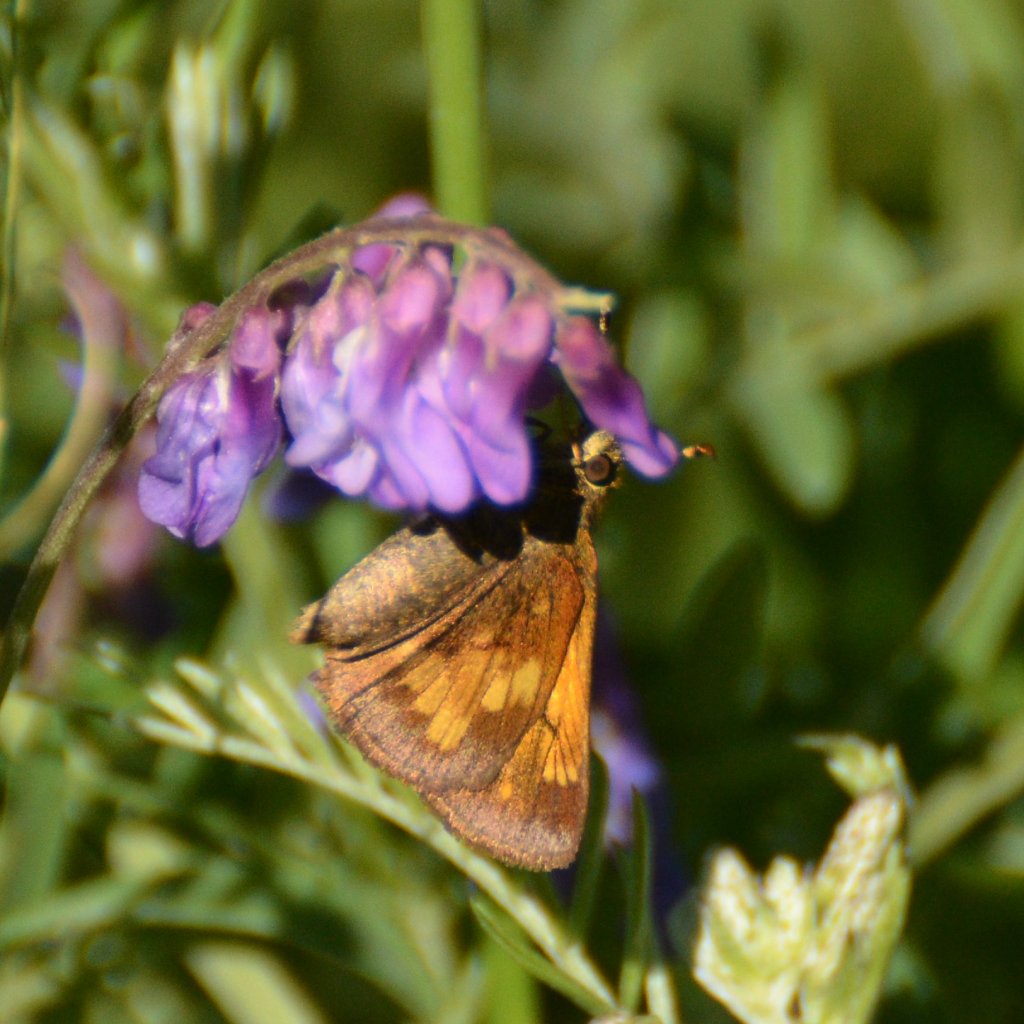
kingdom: Animalia
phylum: Arthropoda
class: Insecta
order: Lepidoptera
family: Hesperiidae
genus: Lon
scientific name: Lon hobomok
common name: Hobomok Skipper
